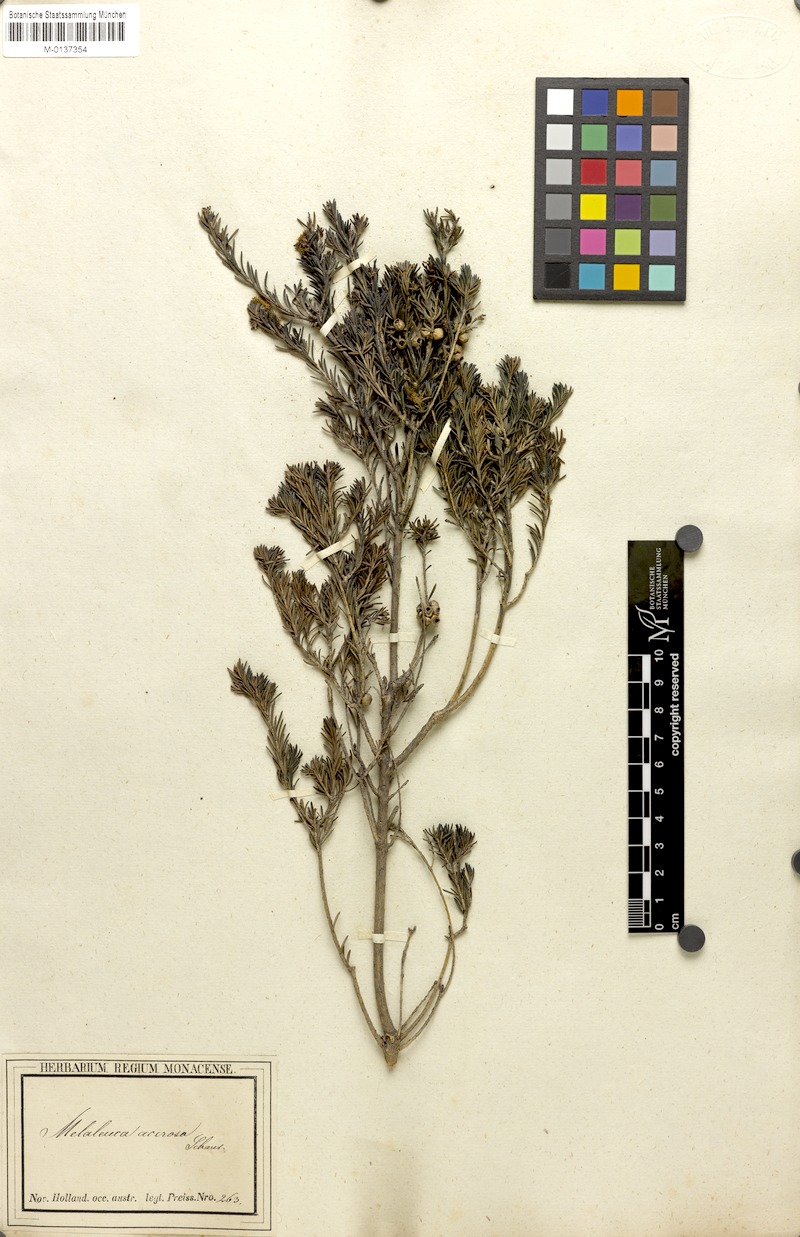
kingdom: Plantae
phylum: Tracheophyta
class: Magnoliopsida
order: Myrtales
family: Myrtaceae
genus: Melaleuca
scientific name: Melaleuca systena
